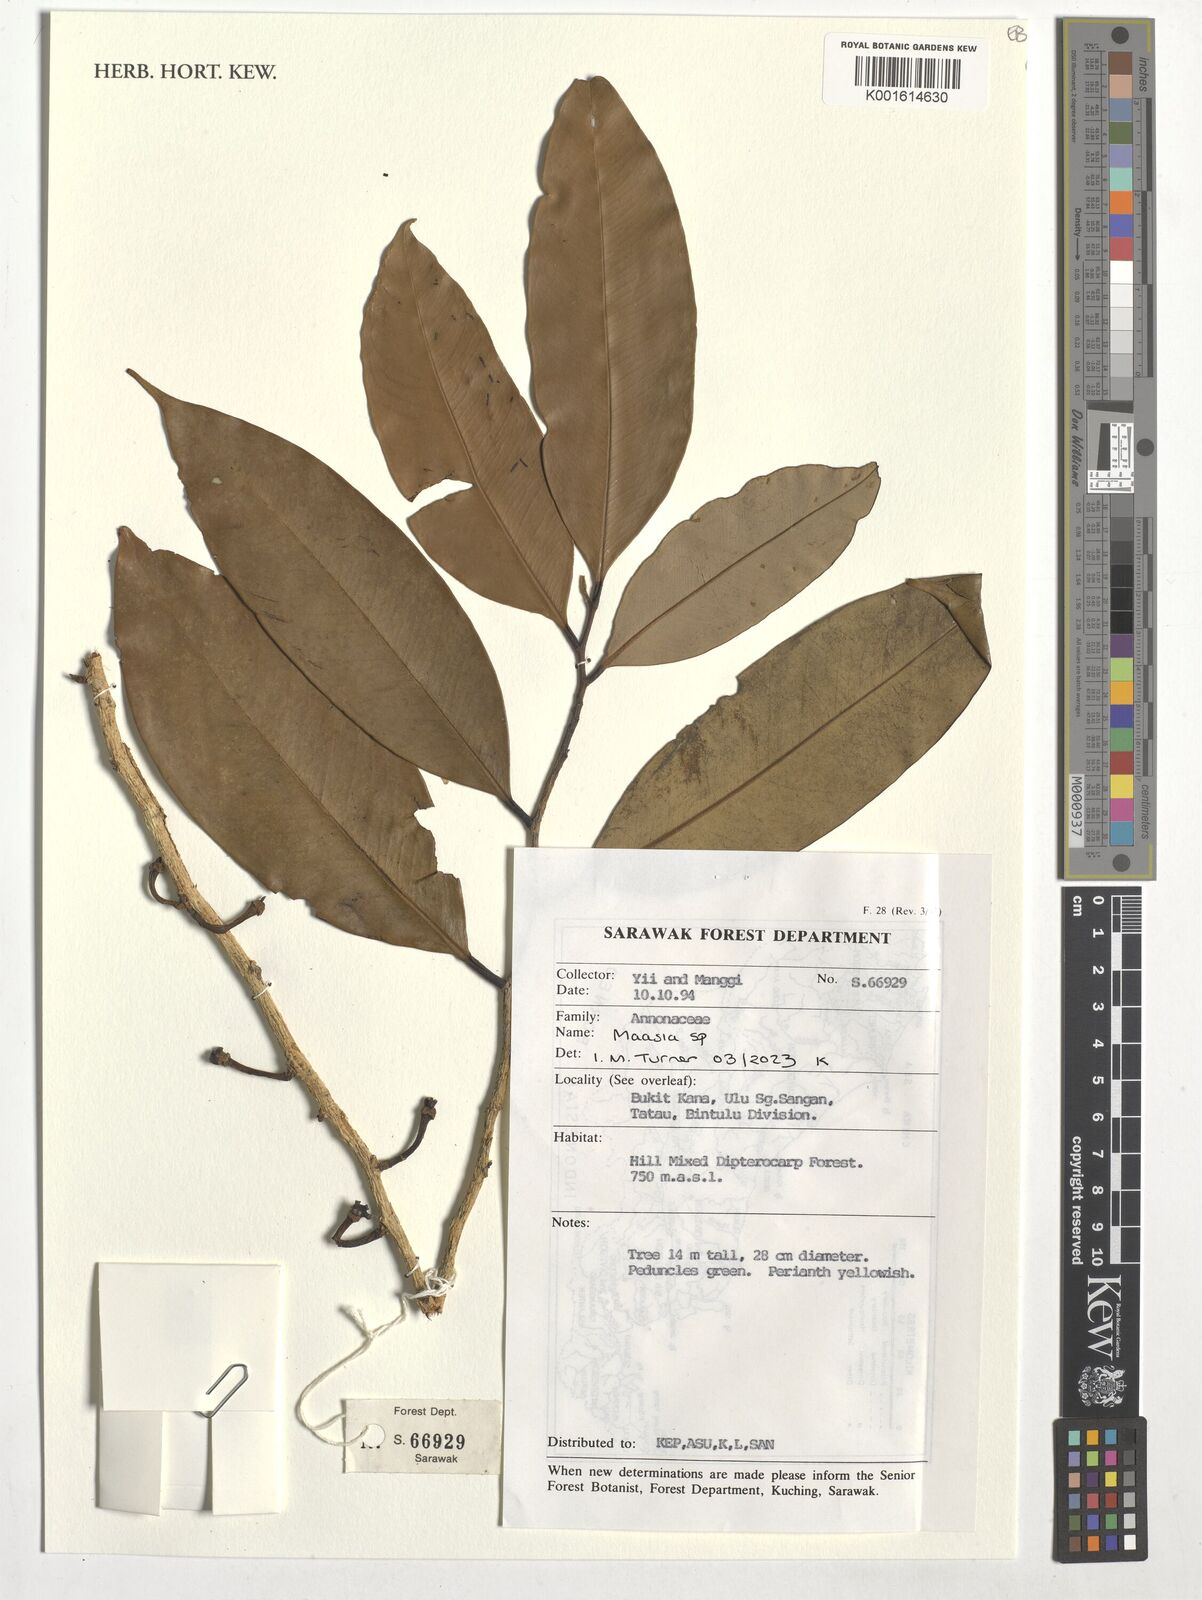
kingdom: Plantae
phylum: Tracheophyta
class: Magnoliopsida
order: Magnoliales
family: Annonaceae
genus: Maasia
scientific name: Maasia
